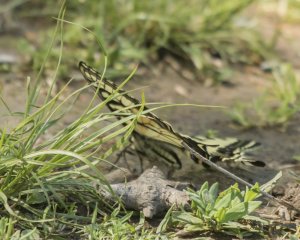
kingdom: Animalia
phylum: Arthropoda
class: Insecta
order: Lepidoptera
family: Papilionidae
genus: Pterourus
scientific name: Pterourus canadensis
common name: Canadian Tiger Swallowtail
